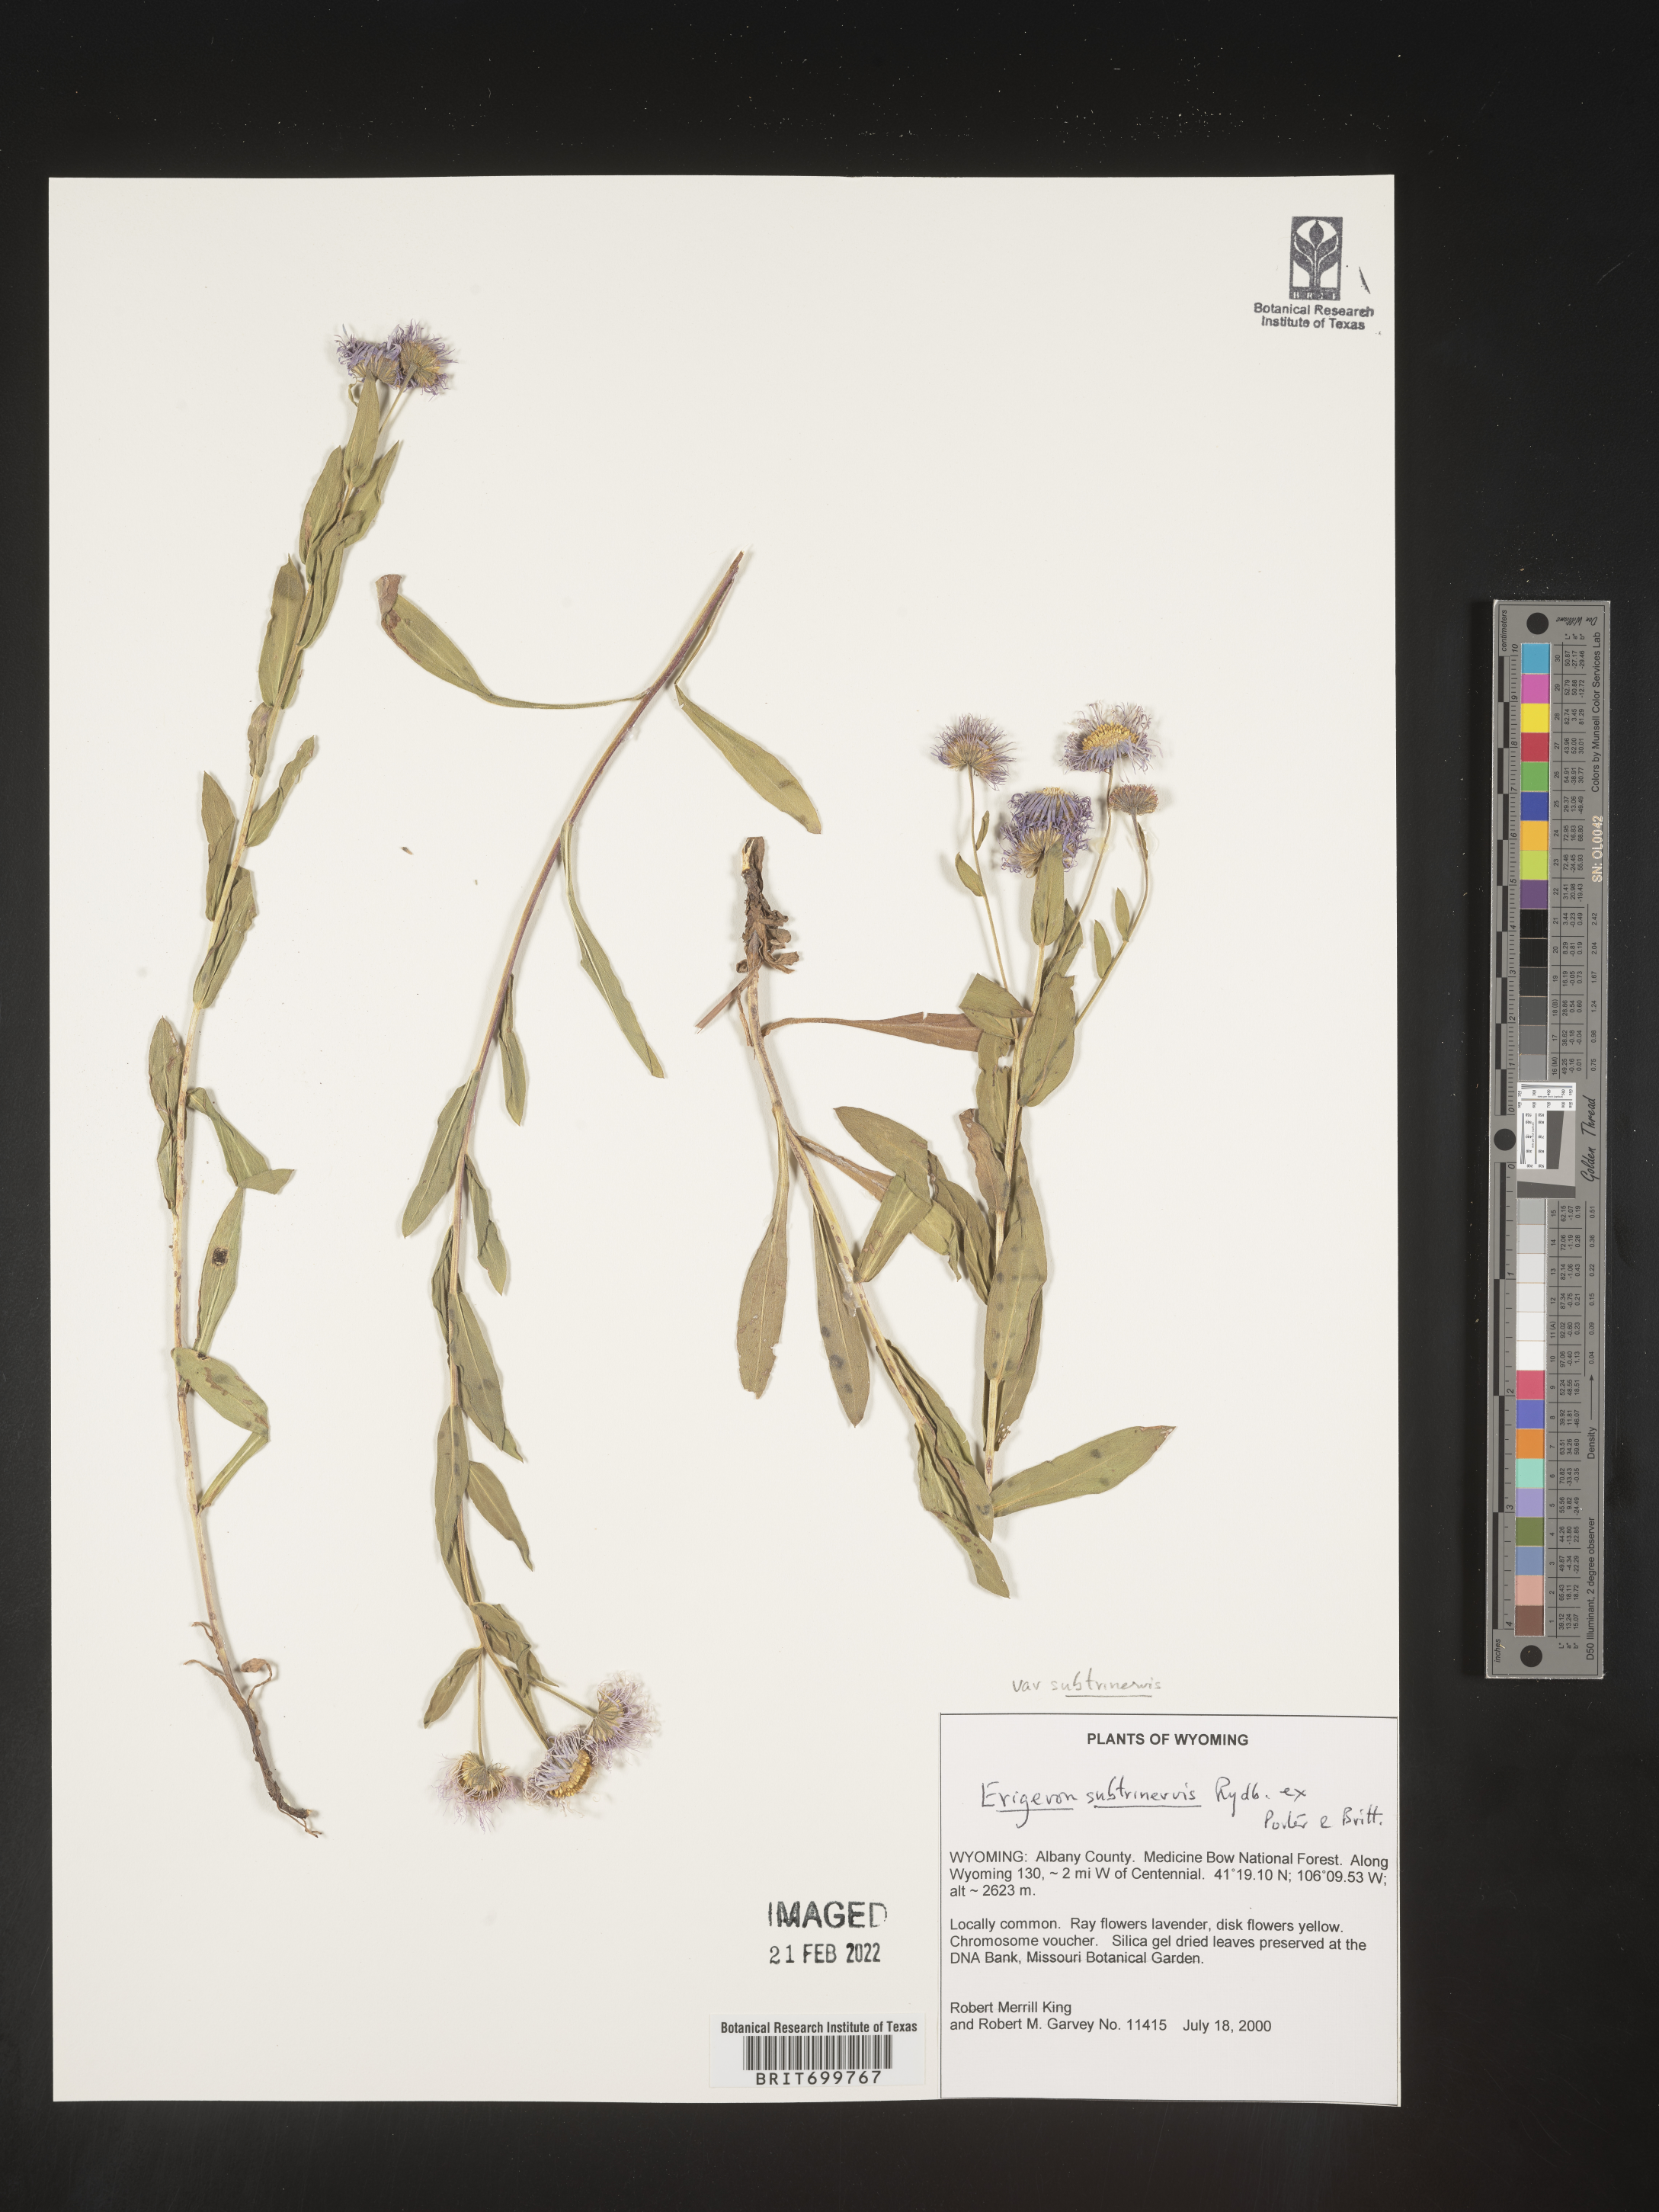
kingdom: Plantae
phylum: Tracheophyta
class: Magnoliopsida
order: Asterales
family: Asteraceae
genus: Erigeron
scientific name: Erigeron subtrinervis
